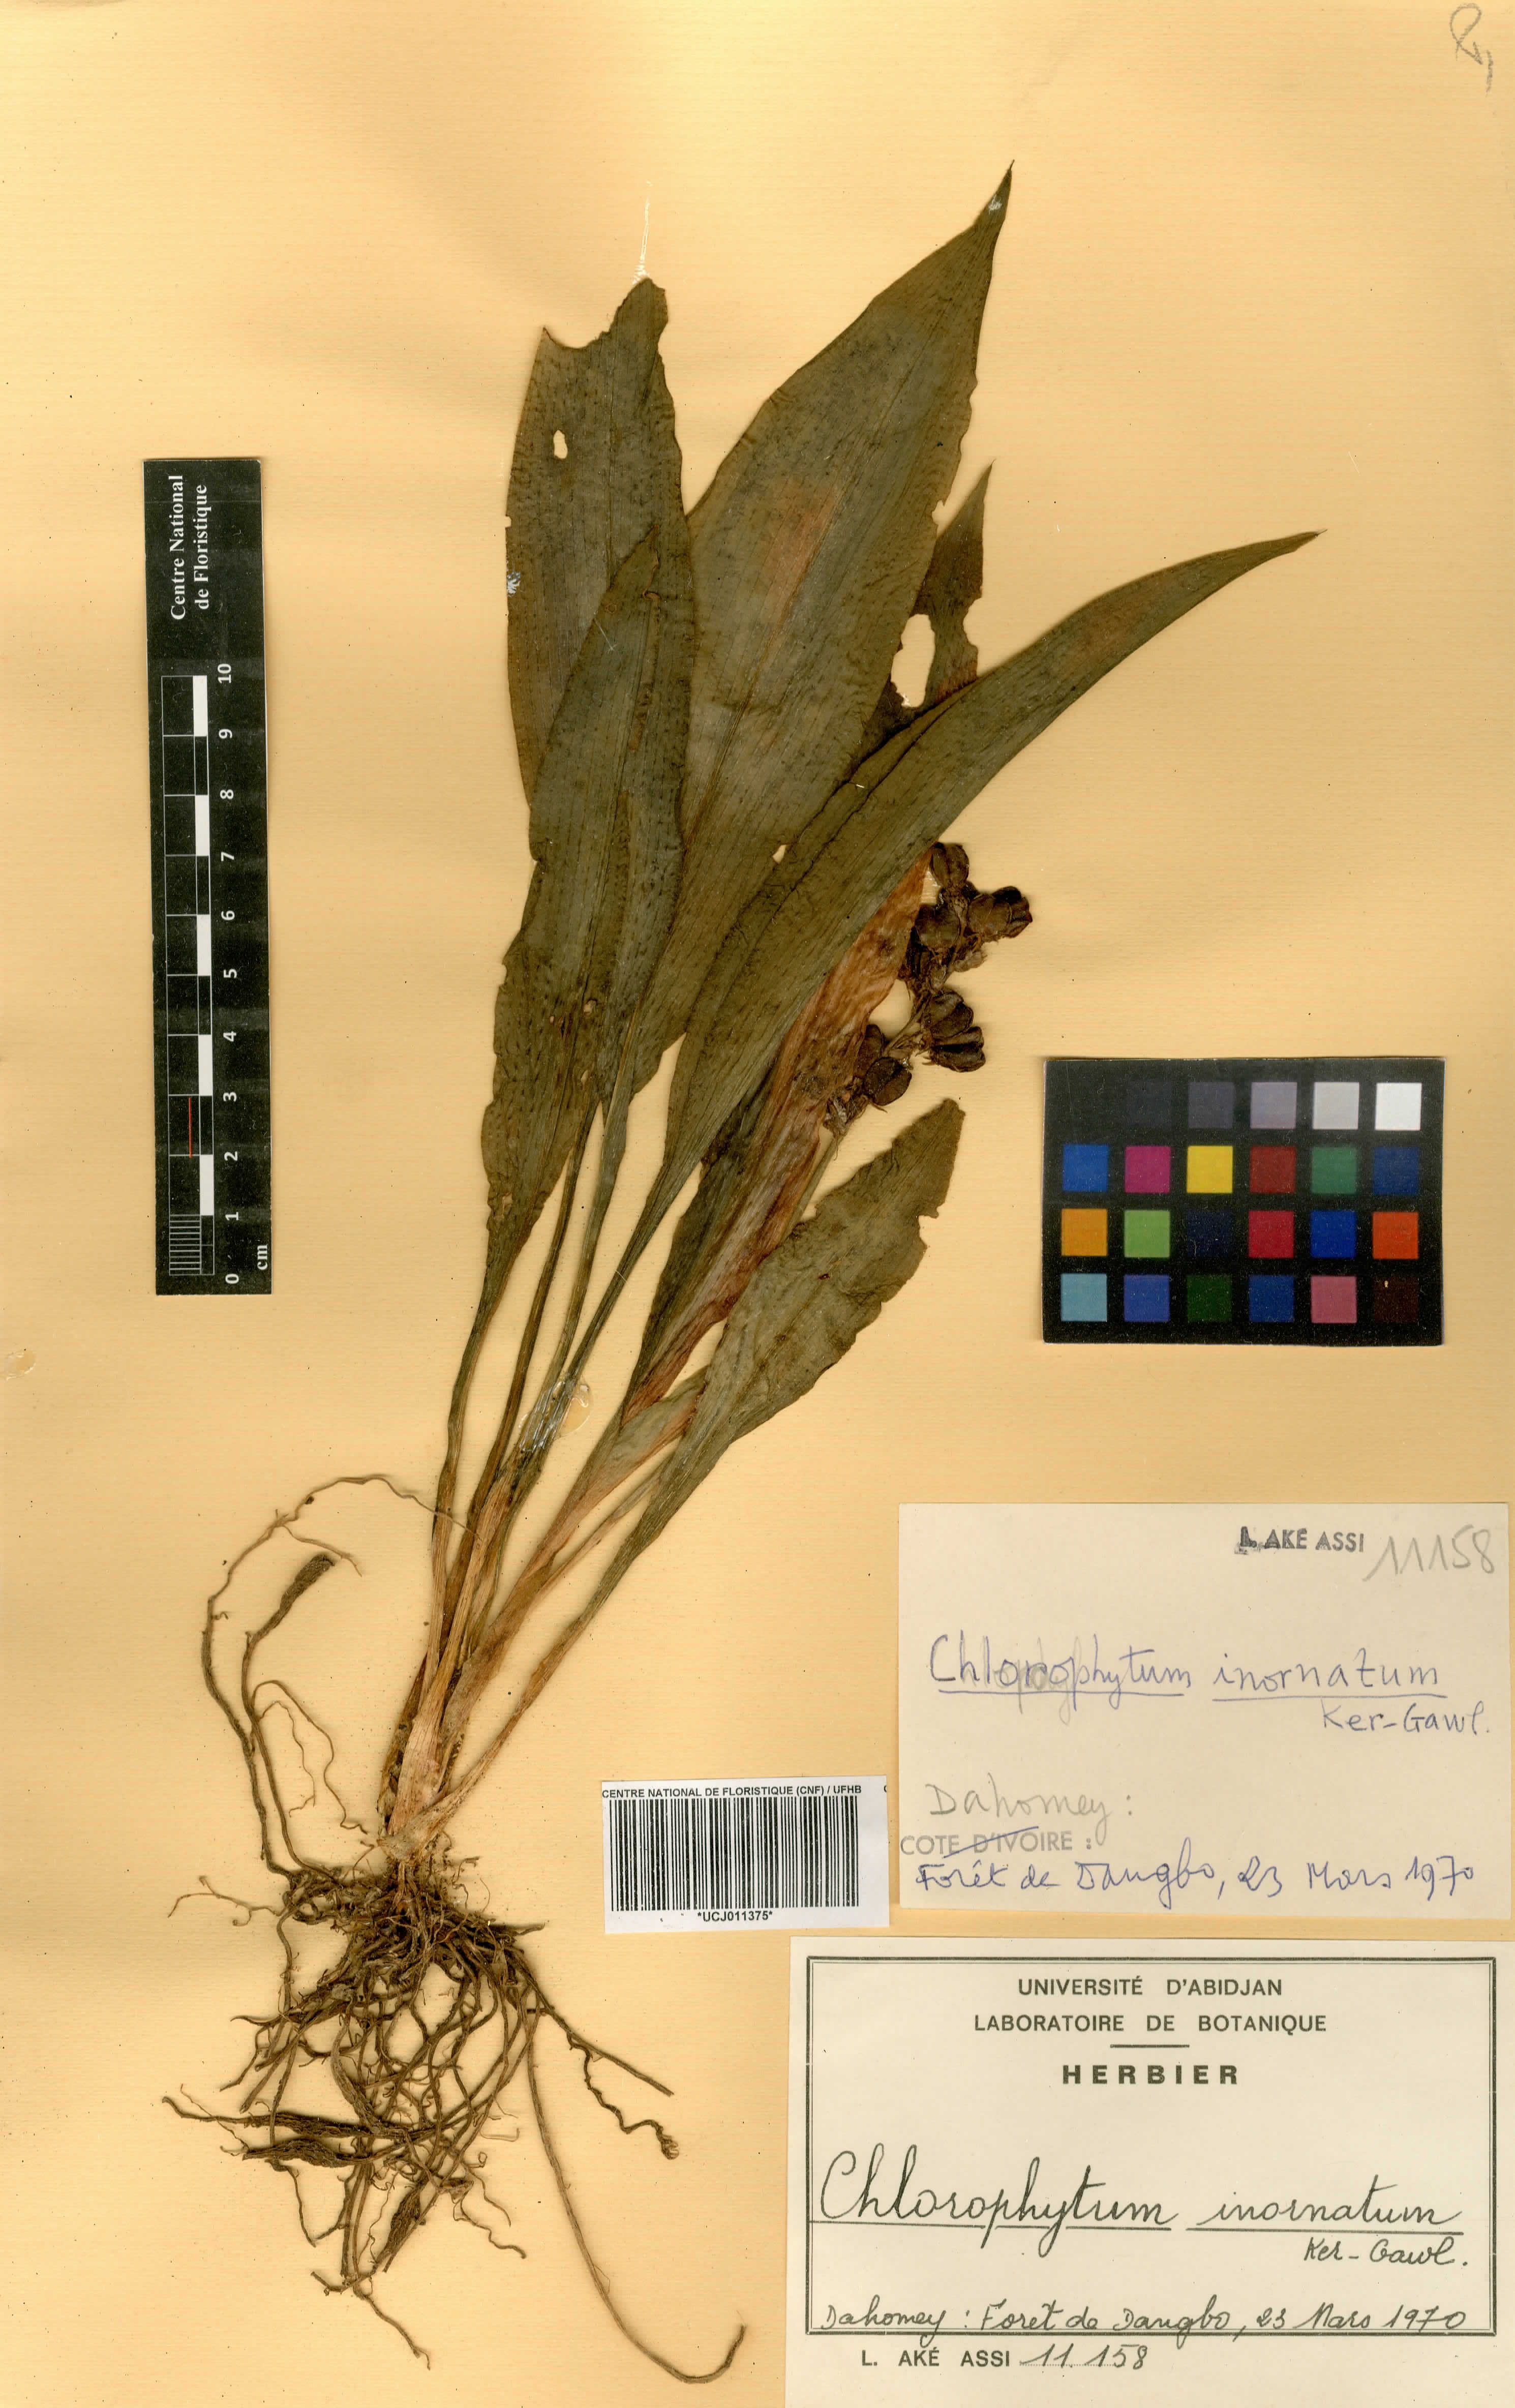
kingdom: Plantae
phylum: Tracheophyta
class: Liliopsida
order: Asparagales
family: Asparagaceae
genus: Chlorophytum
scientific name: Chlorophytum inornatum
